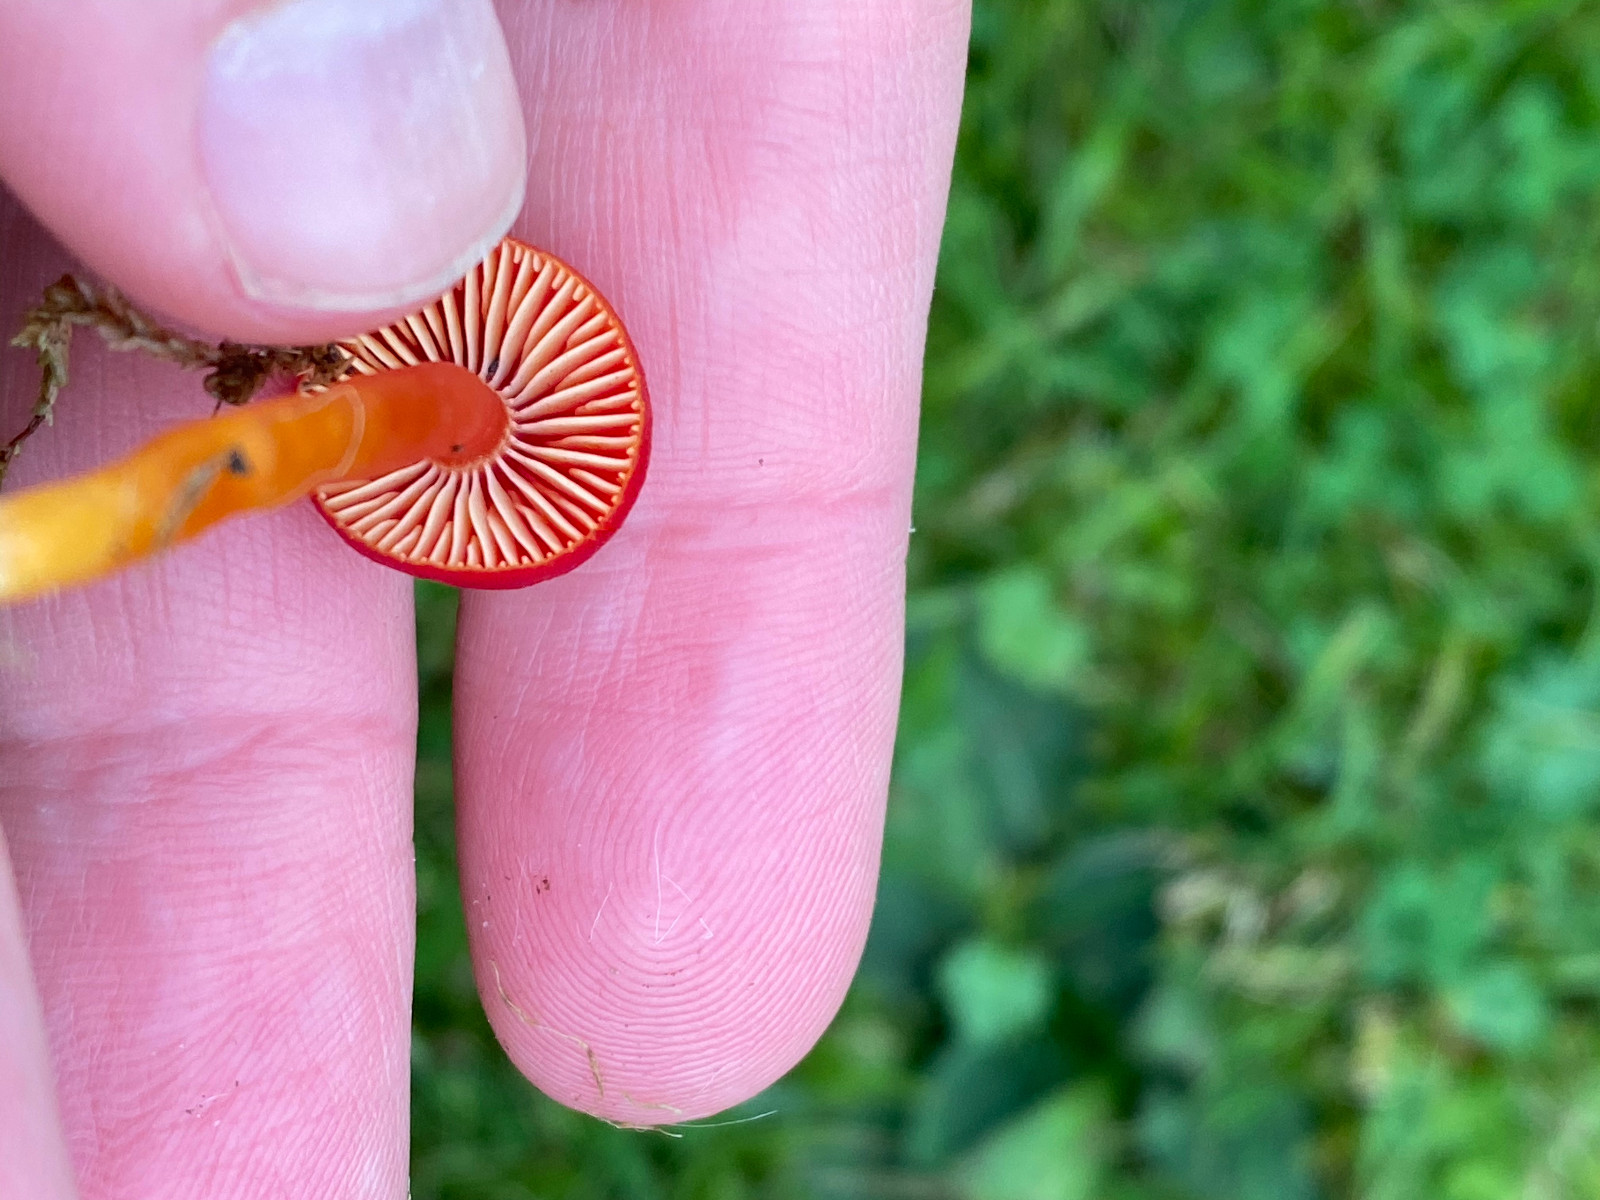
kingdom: Fungi
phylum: Basidiomycota
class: Agaricomycetes
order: Agaricales
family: Hygrophoraceae
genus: Hygrocybe
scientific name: Hygrocybe coccinea
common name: cinnober-vokshat
